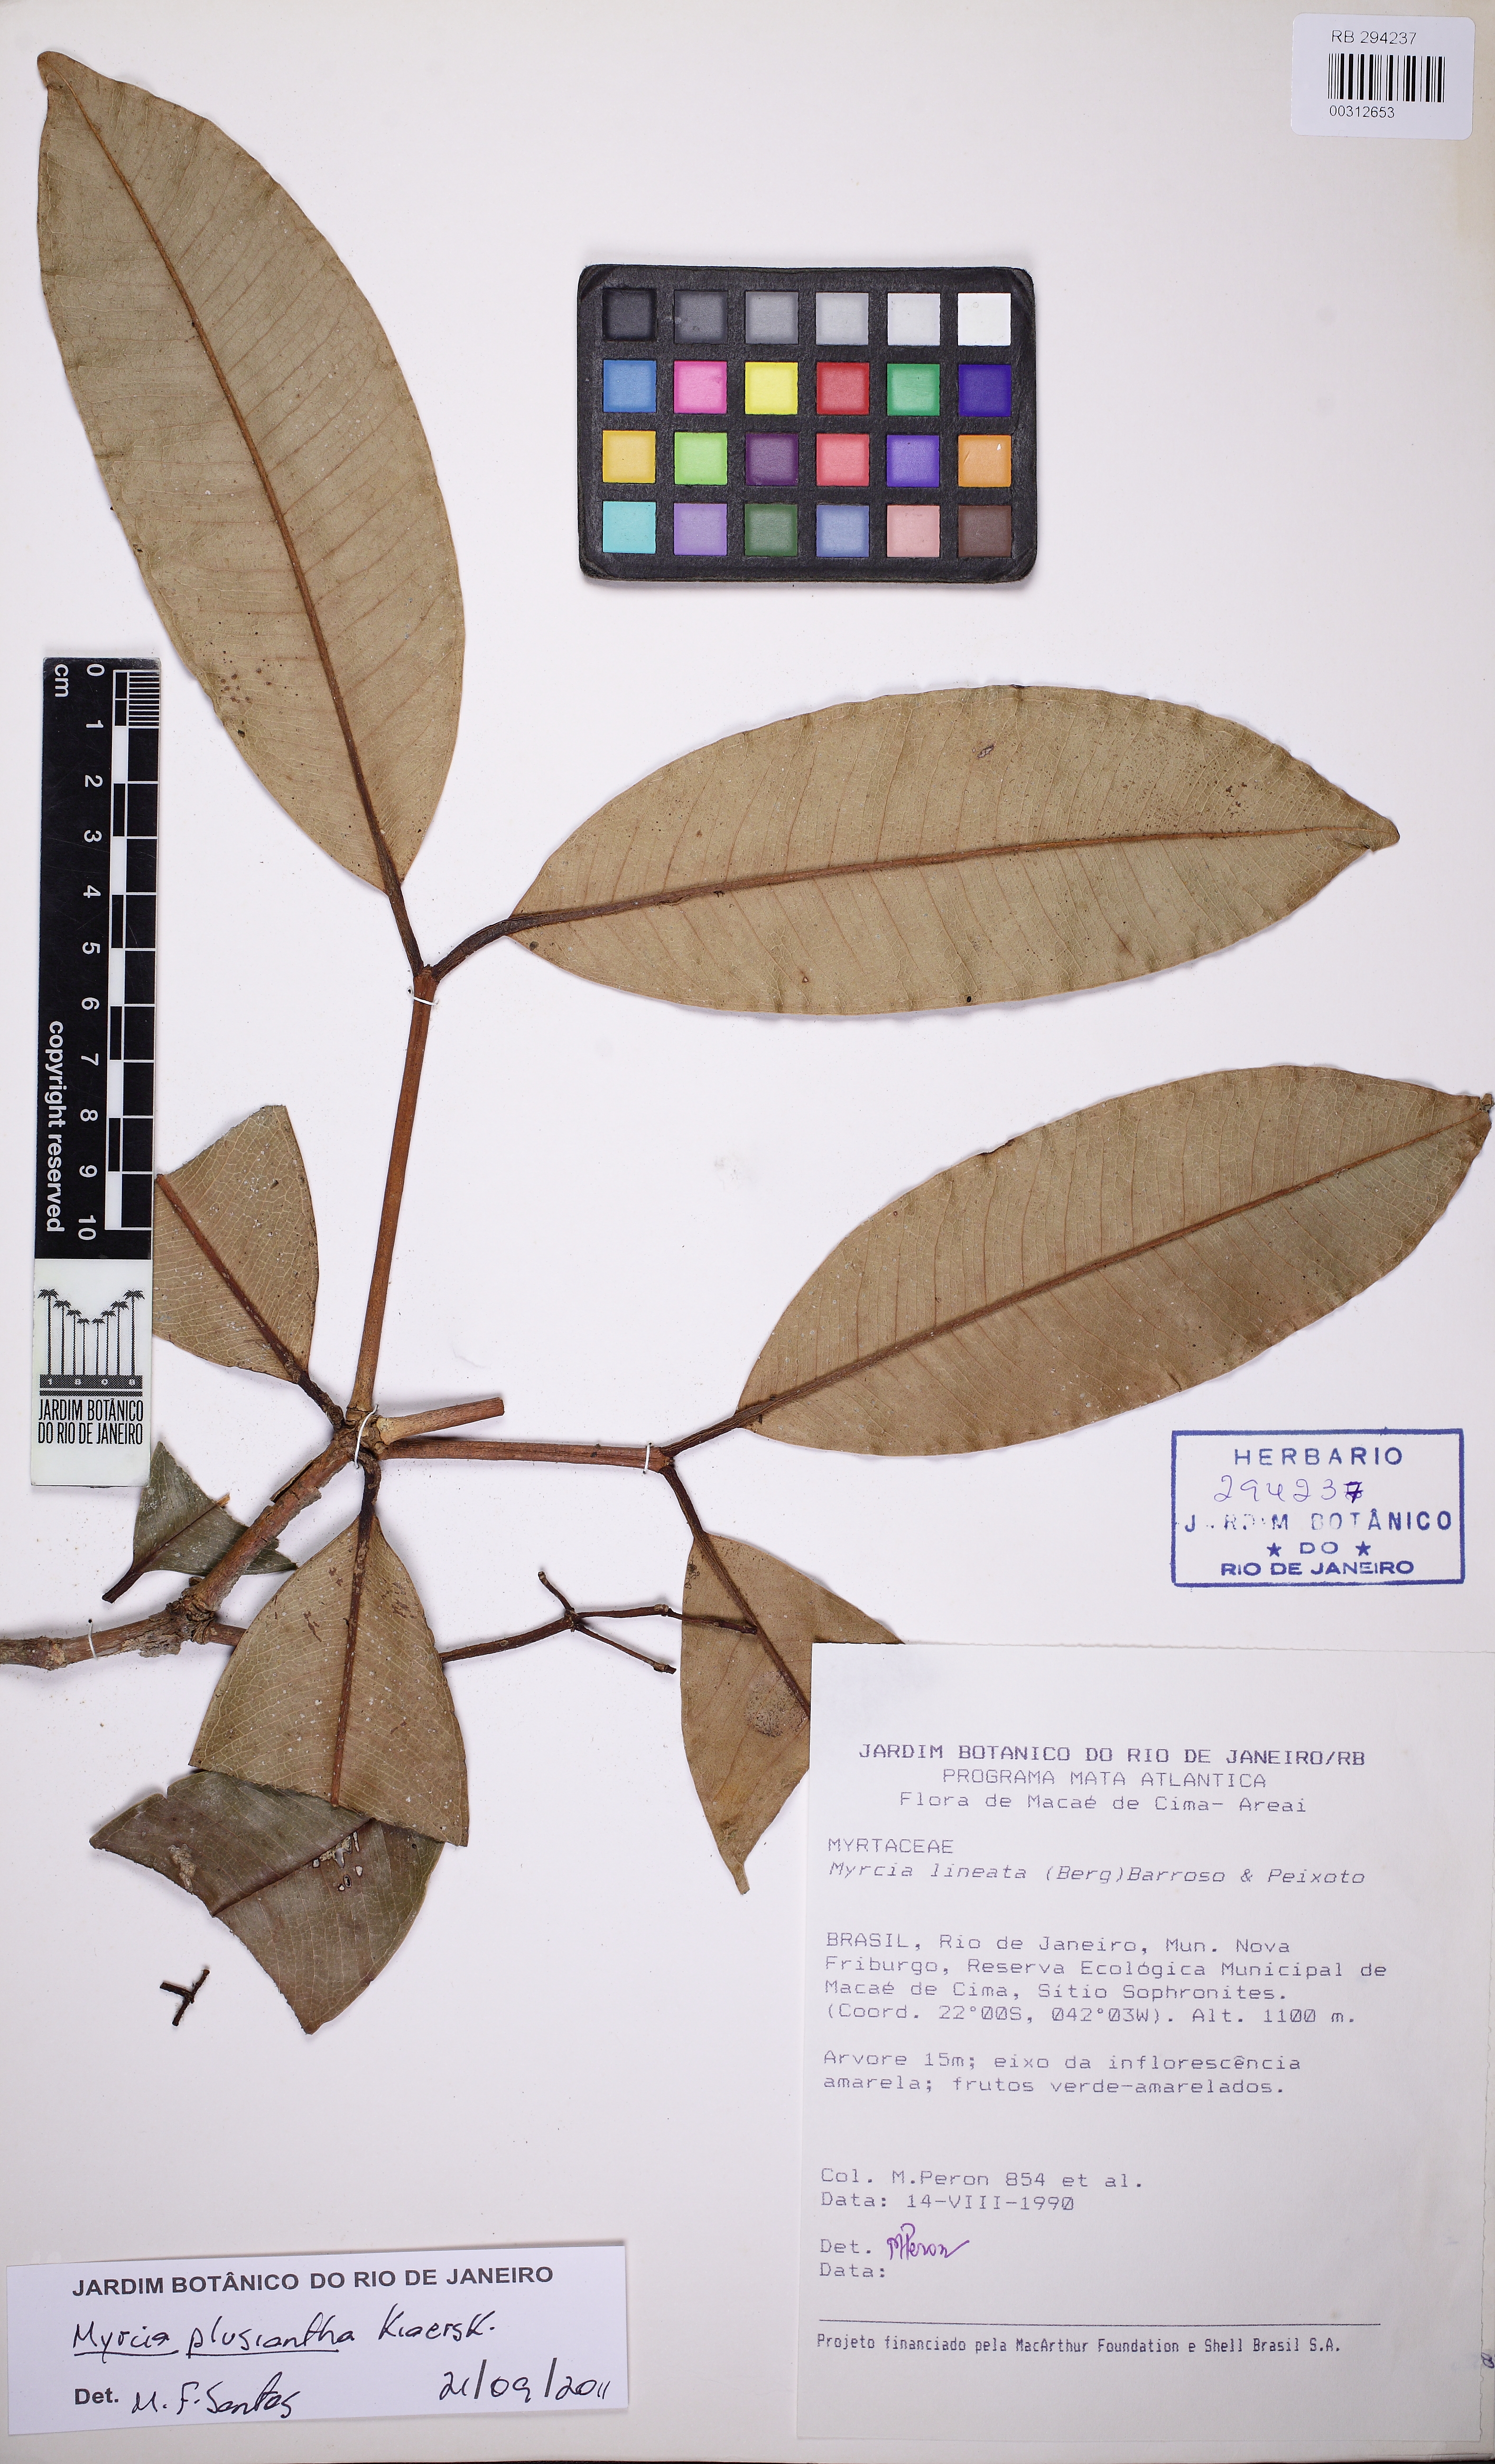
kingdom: Plantae
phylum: Tracheophyta
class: Magnoliopsida
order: Myrtales
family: Myrtaceae
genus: Myrcia
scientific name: Myrcia plusiantha
